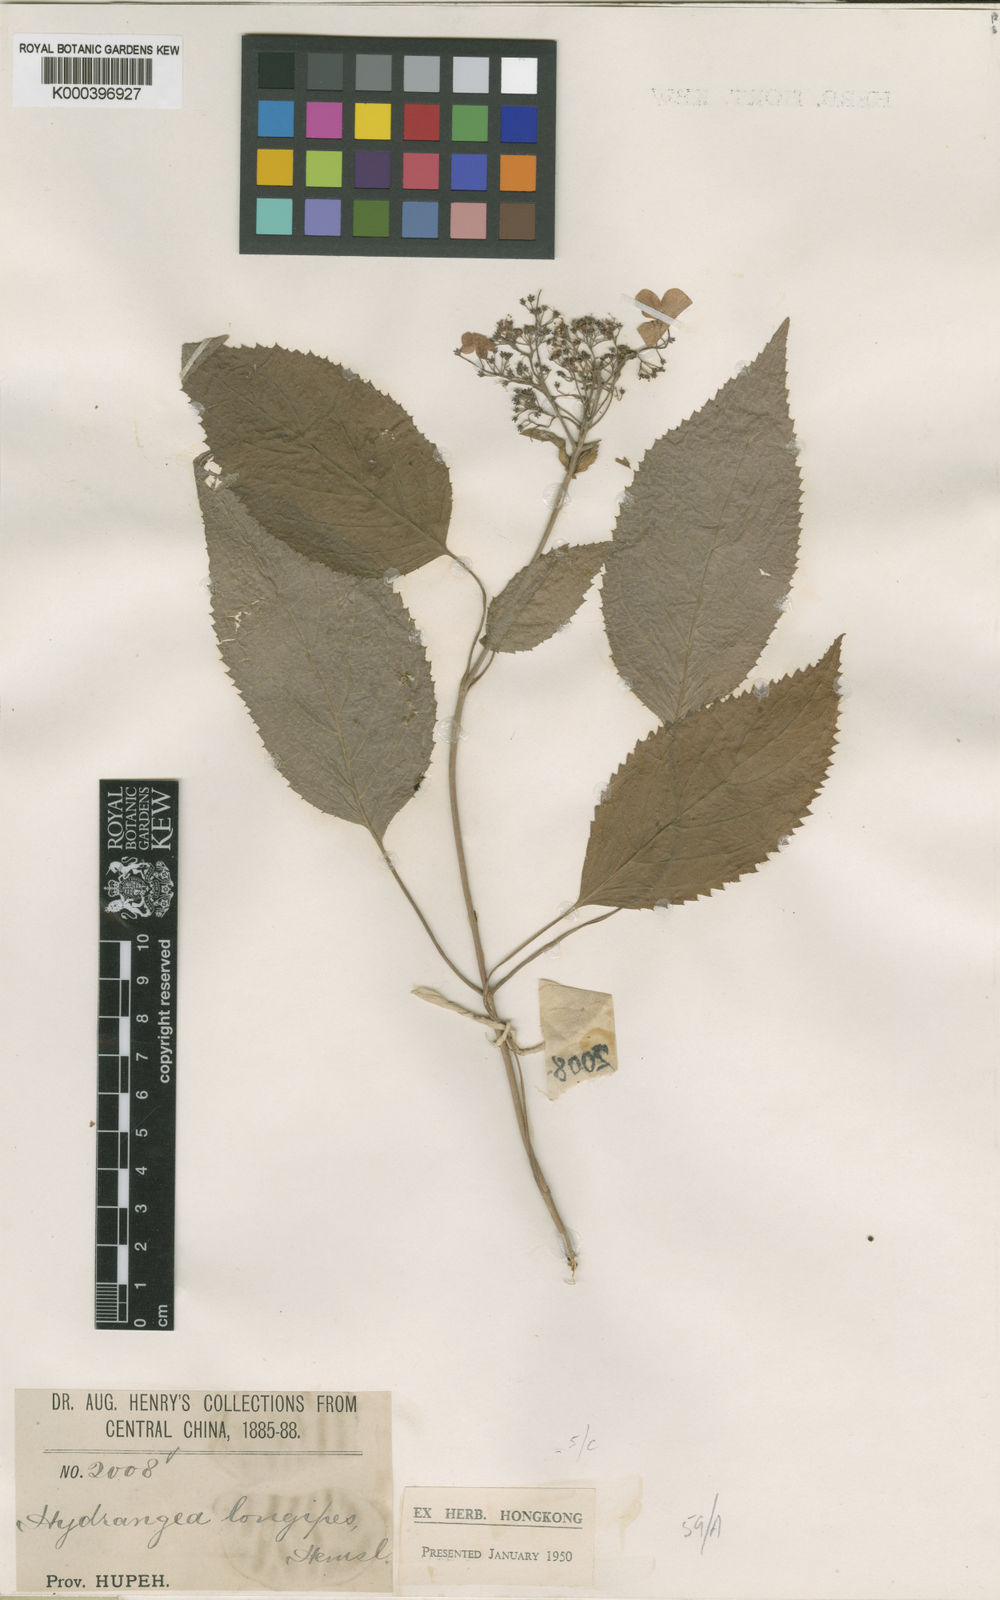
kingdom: Plantae
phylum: Tracheophyta
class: Magnoliopsida
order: Cornales
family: Hydrangeaceae
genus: Hydrangea
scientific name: Hydrangea longipes
